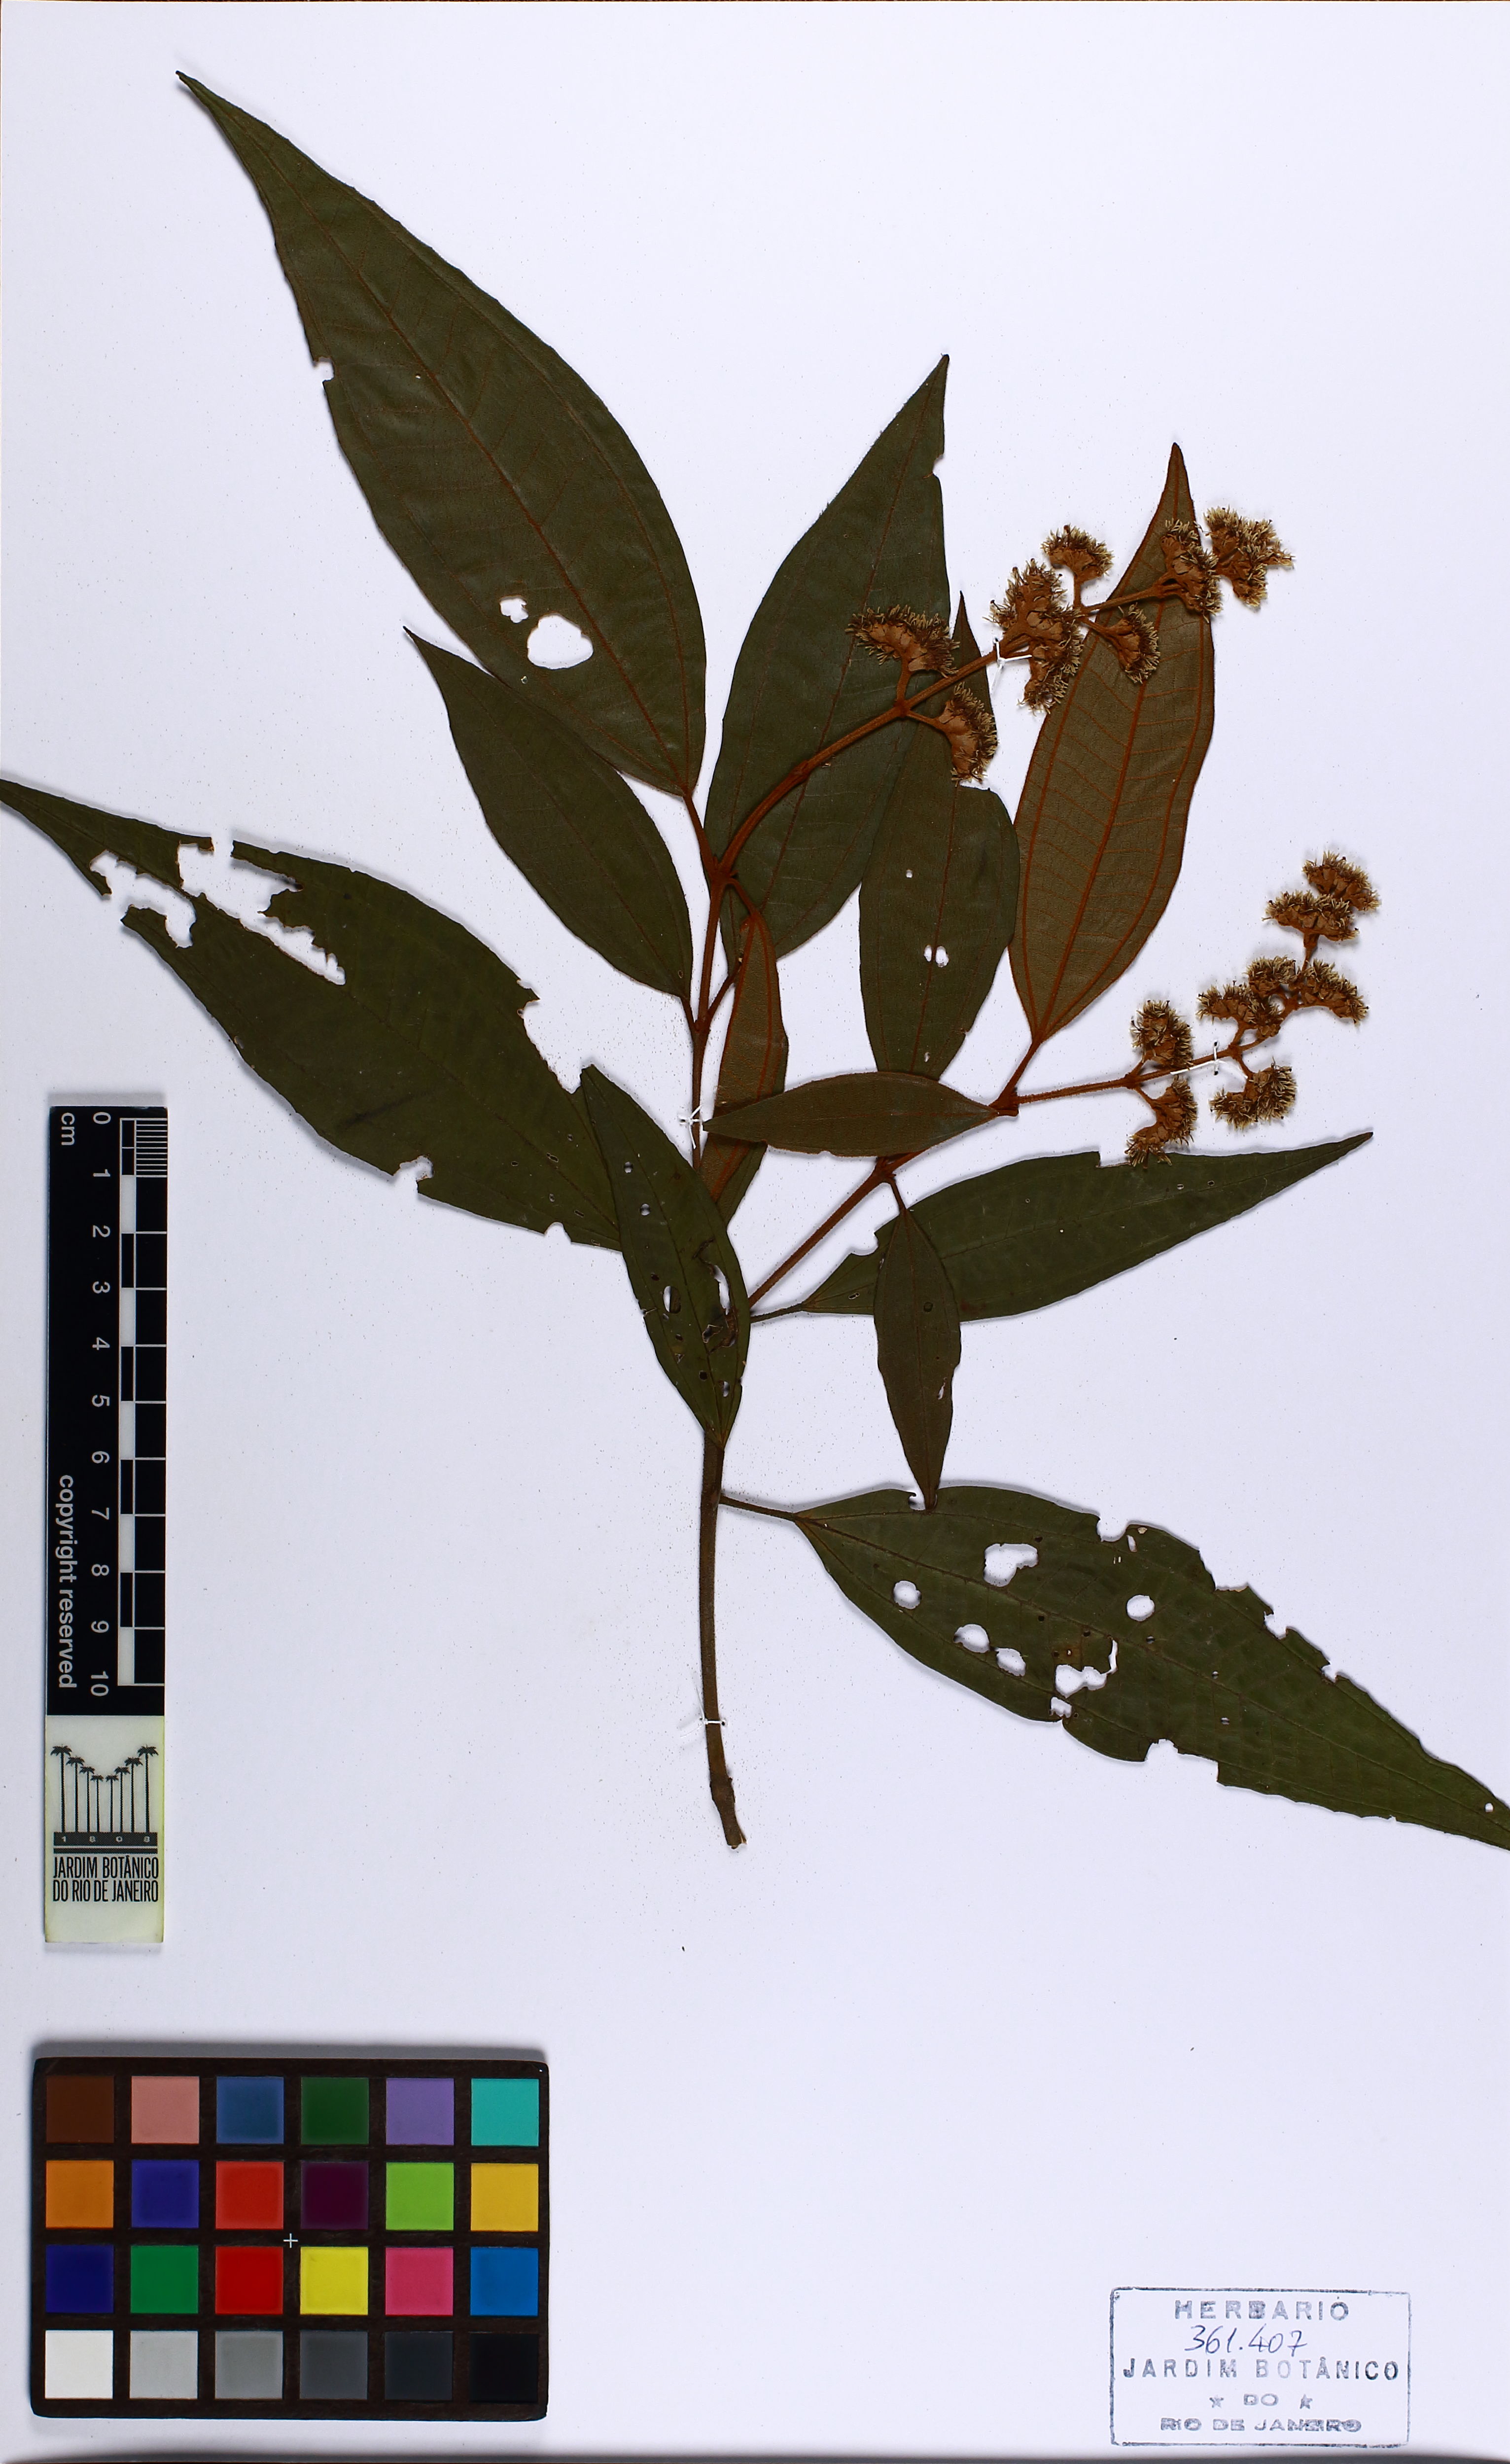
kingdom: Plantae
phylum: Tracheophyta
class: Magnoliopsida
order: Myrtales
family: Melastomataceae
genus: Miconia
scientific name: Miconia valtheri
